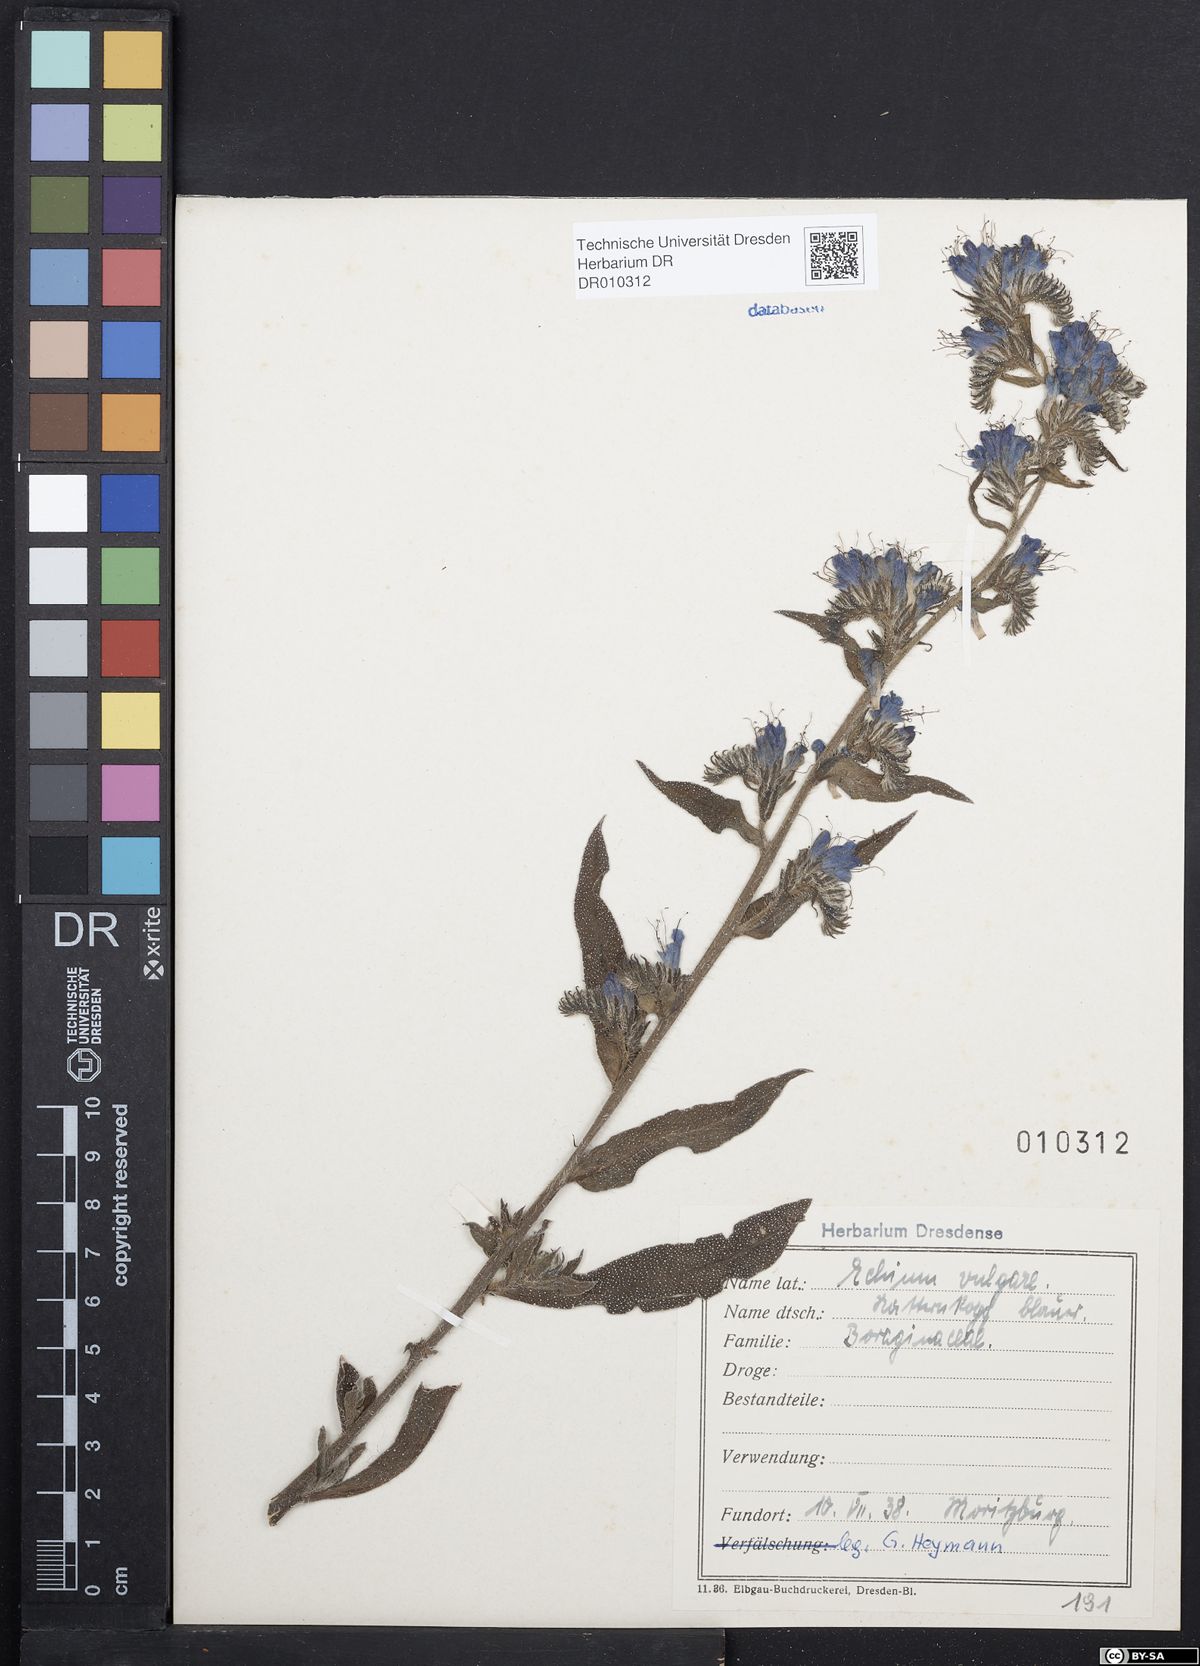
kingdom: Plantae
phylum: Tracheophyta
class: Magnoliopsida
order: Boraginales
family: Boraginaceae
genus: Echium
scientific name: Echium vulgare
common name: Common viper's bugloss
